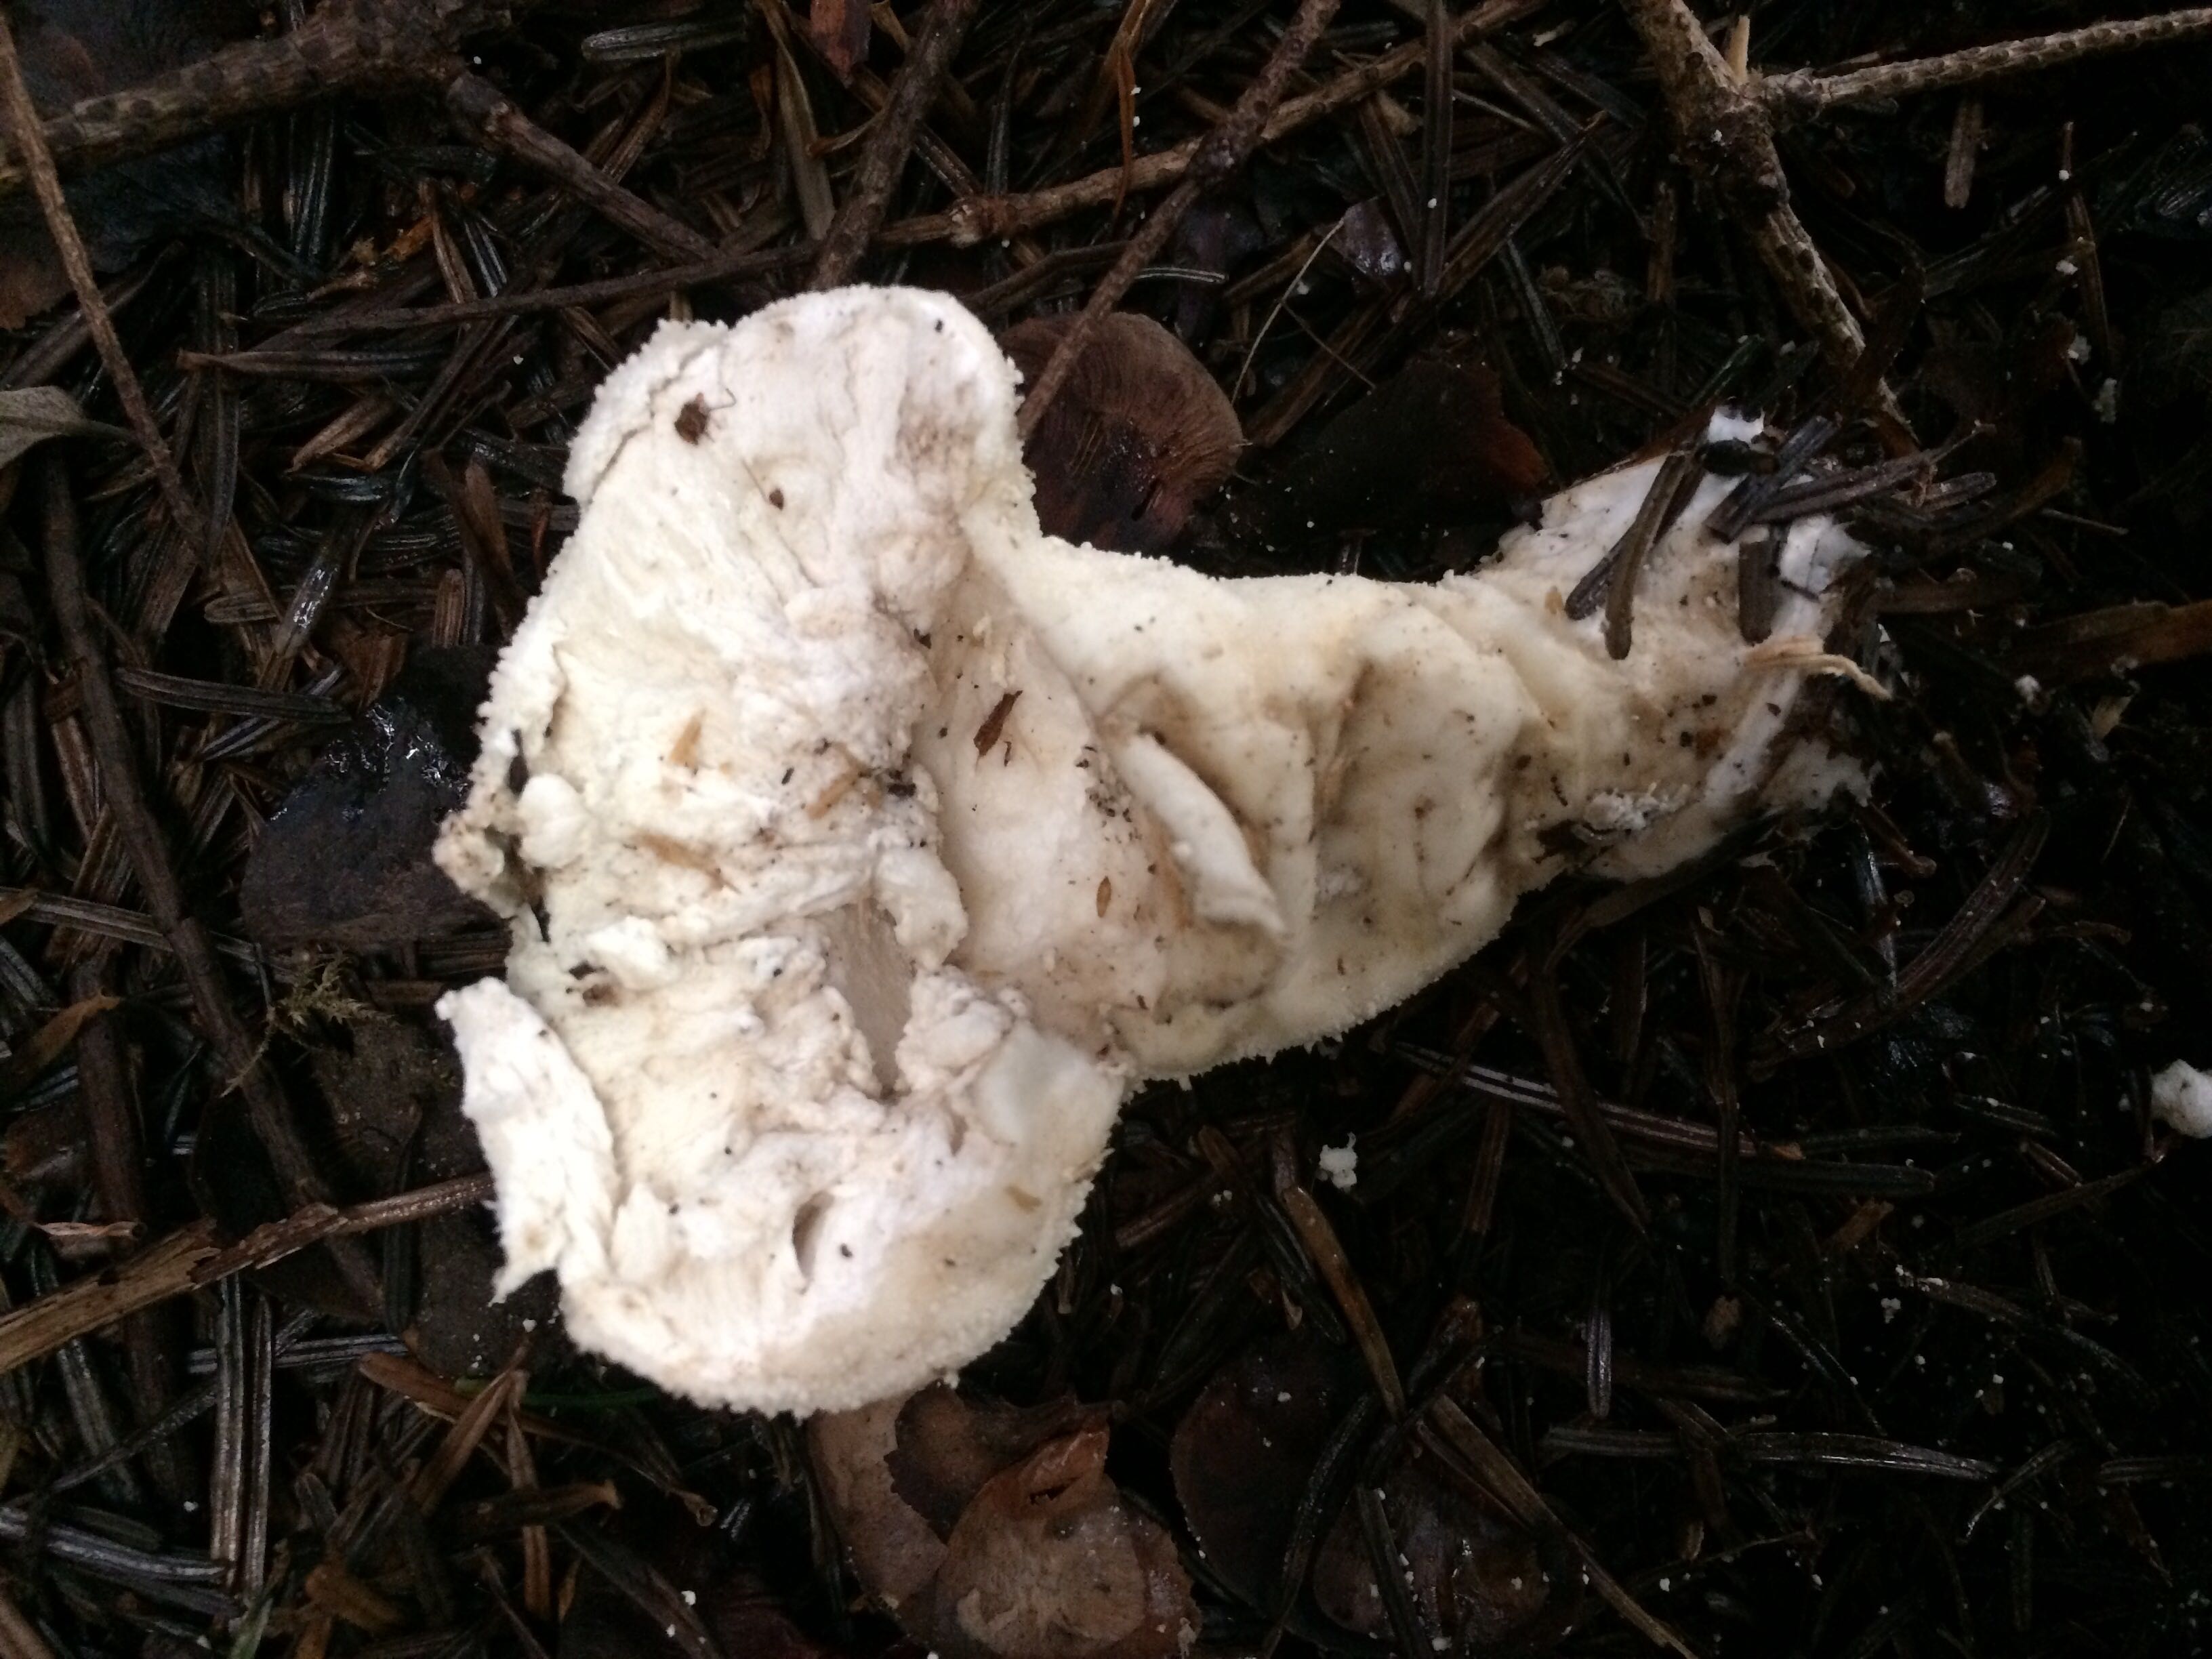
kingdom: Fungi
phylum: Basidiomycota
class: Agaricomycetes
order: Agaricales
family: Lycoperdaceae
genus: Lycoperdon
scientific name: Lycoperdon perlatum
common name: krystal-støvbold
